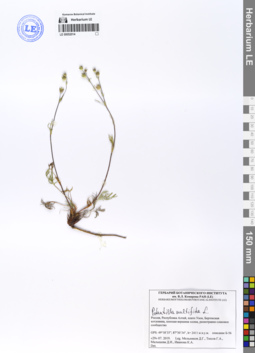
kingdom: Plantae
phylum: Tracheophyta
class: Magnoliopsida
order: Rosales
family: Rosaceae
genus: Potentilla
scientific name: Potentilla multifida
